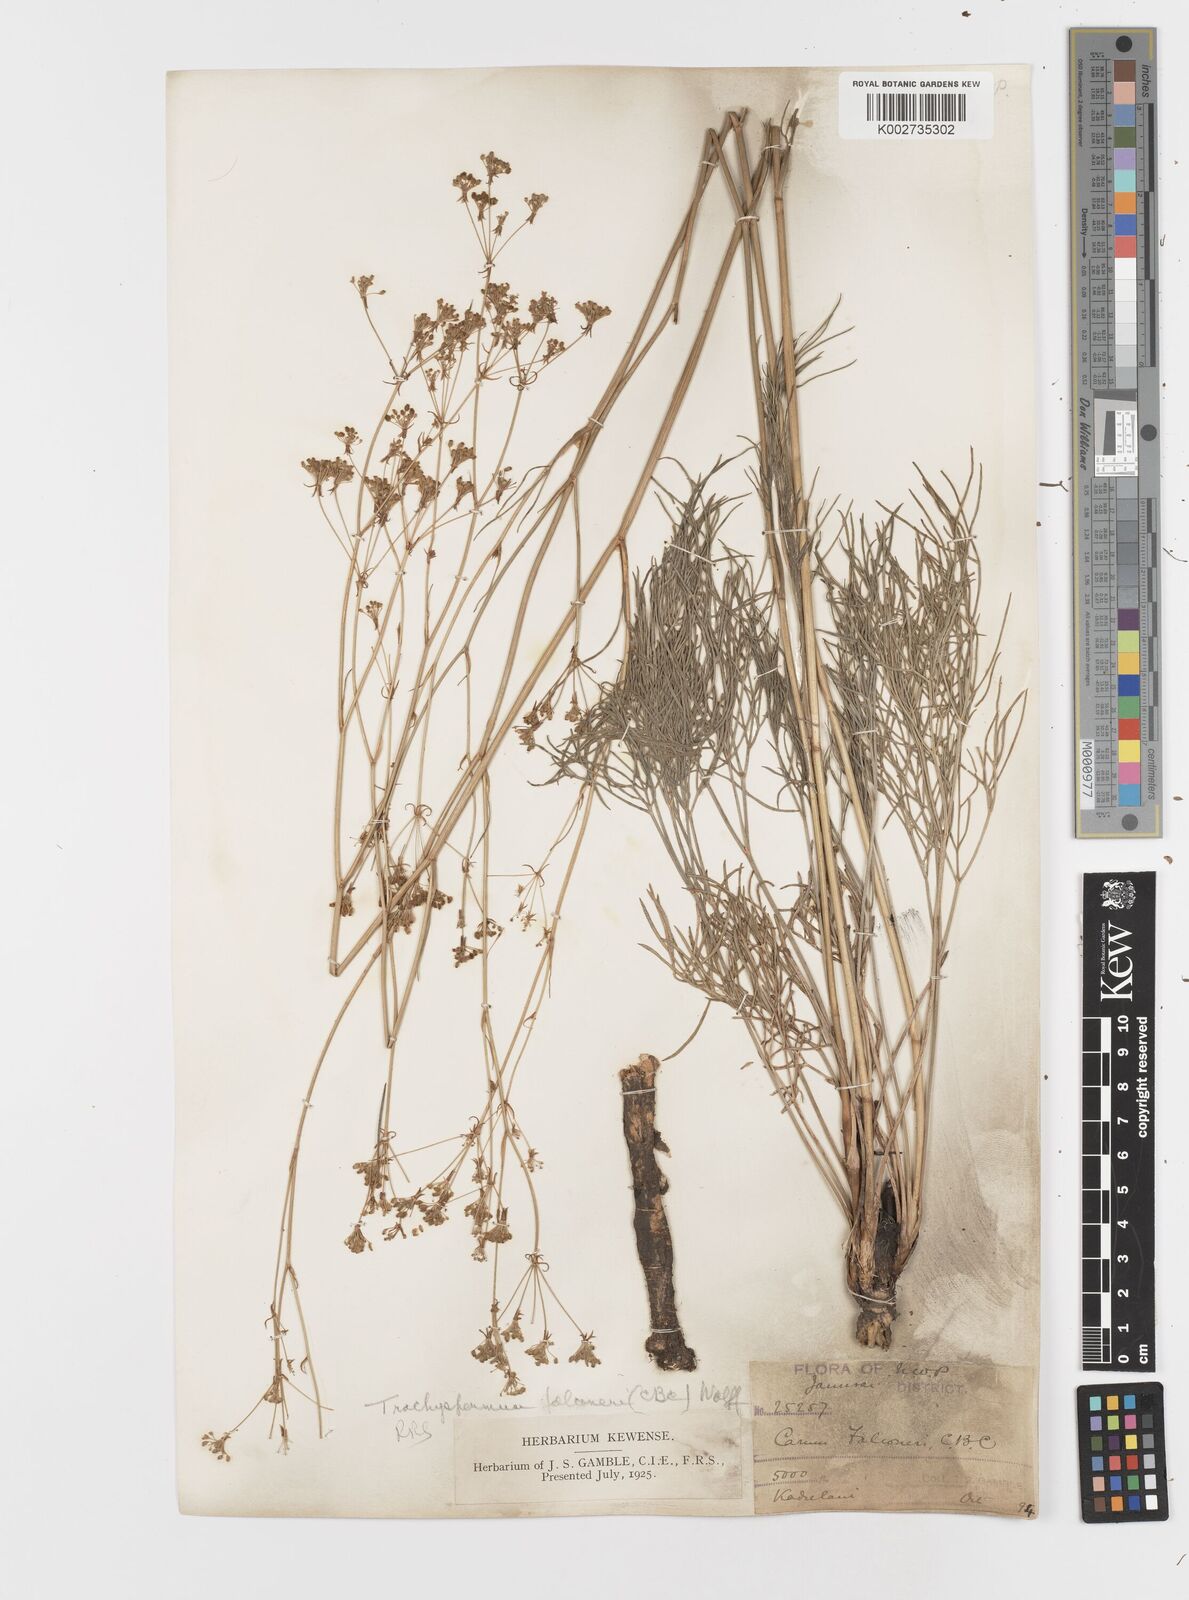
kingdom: Plantae
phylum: Tracheophyta
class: Magnoliopsida
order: Apiales
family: Apiaceae
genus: Trachyspermum
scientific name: Trachyspermum falconeri
